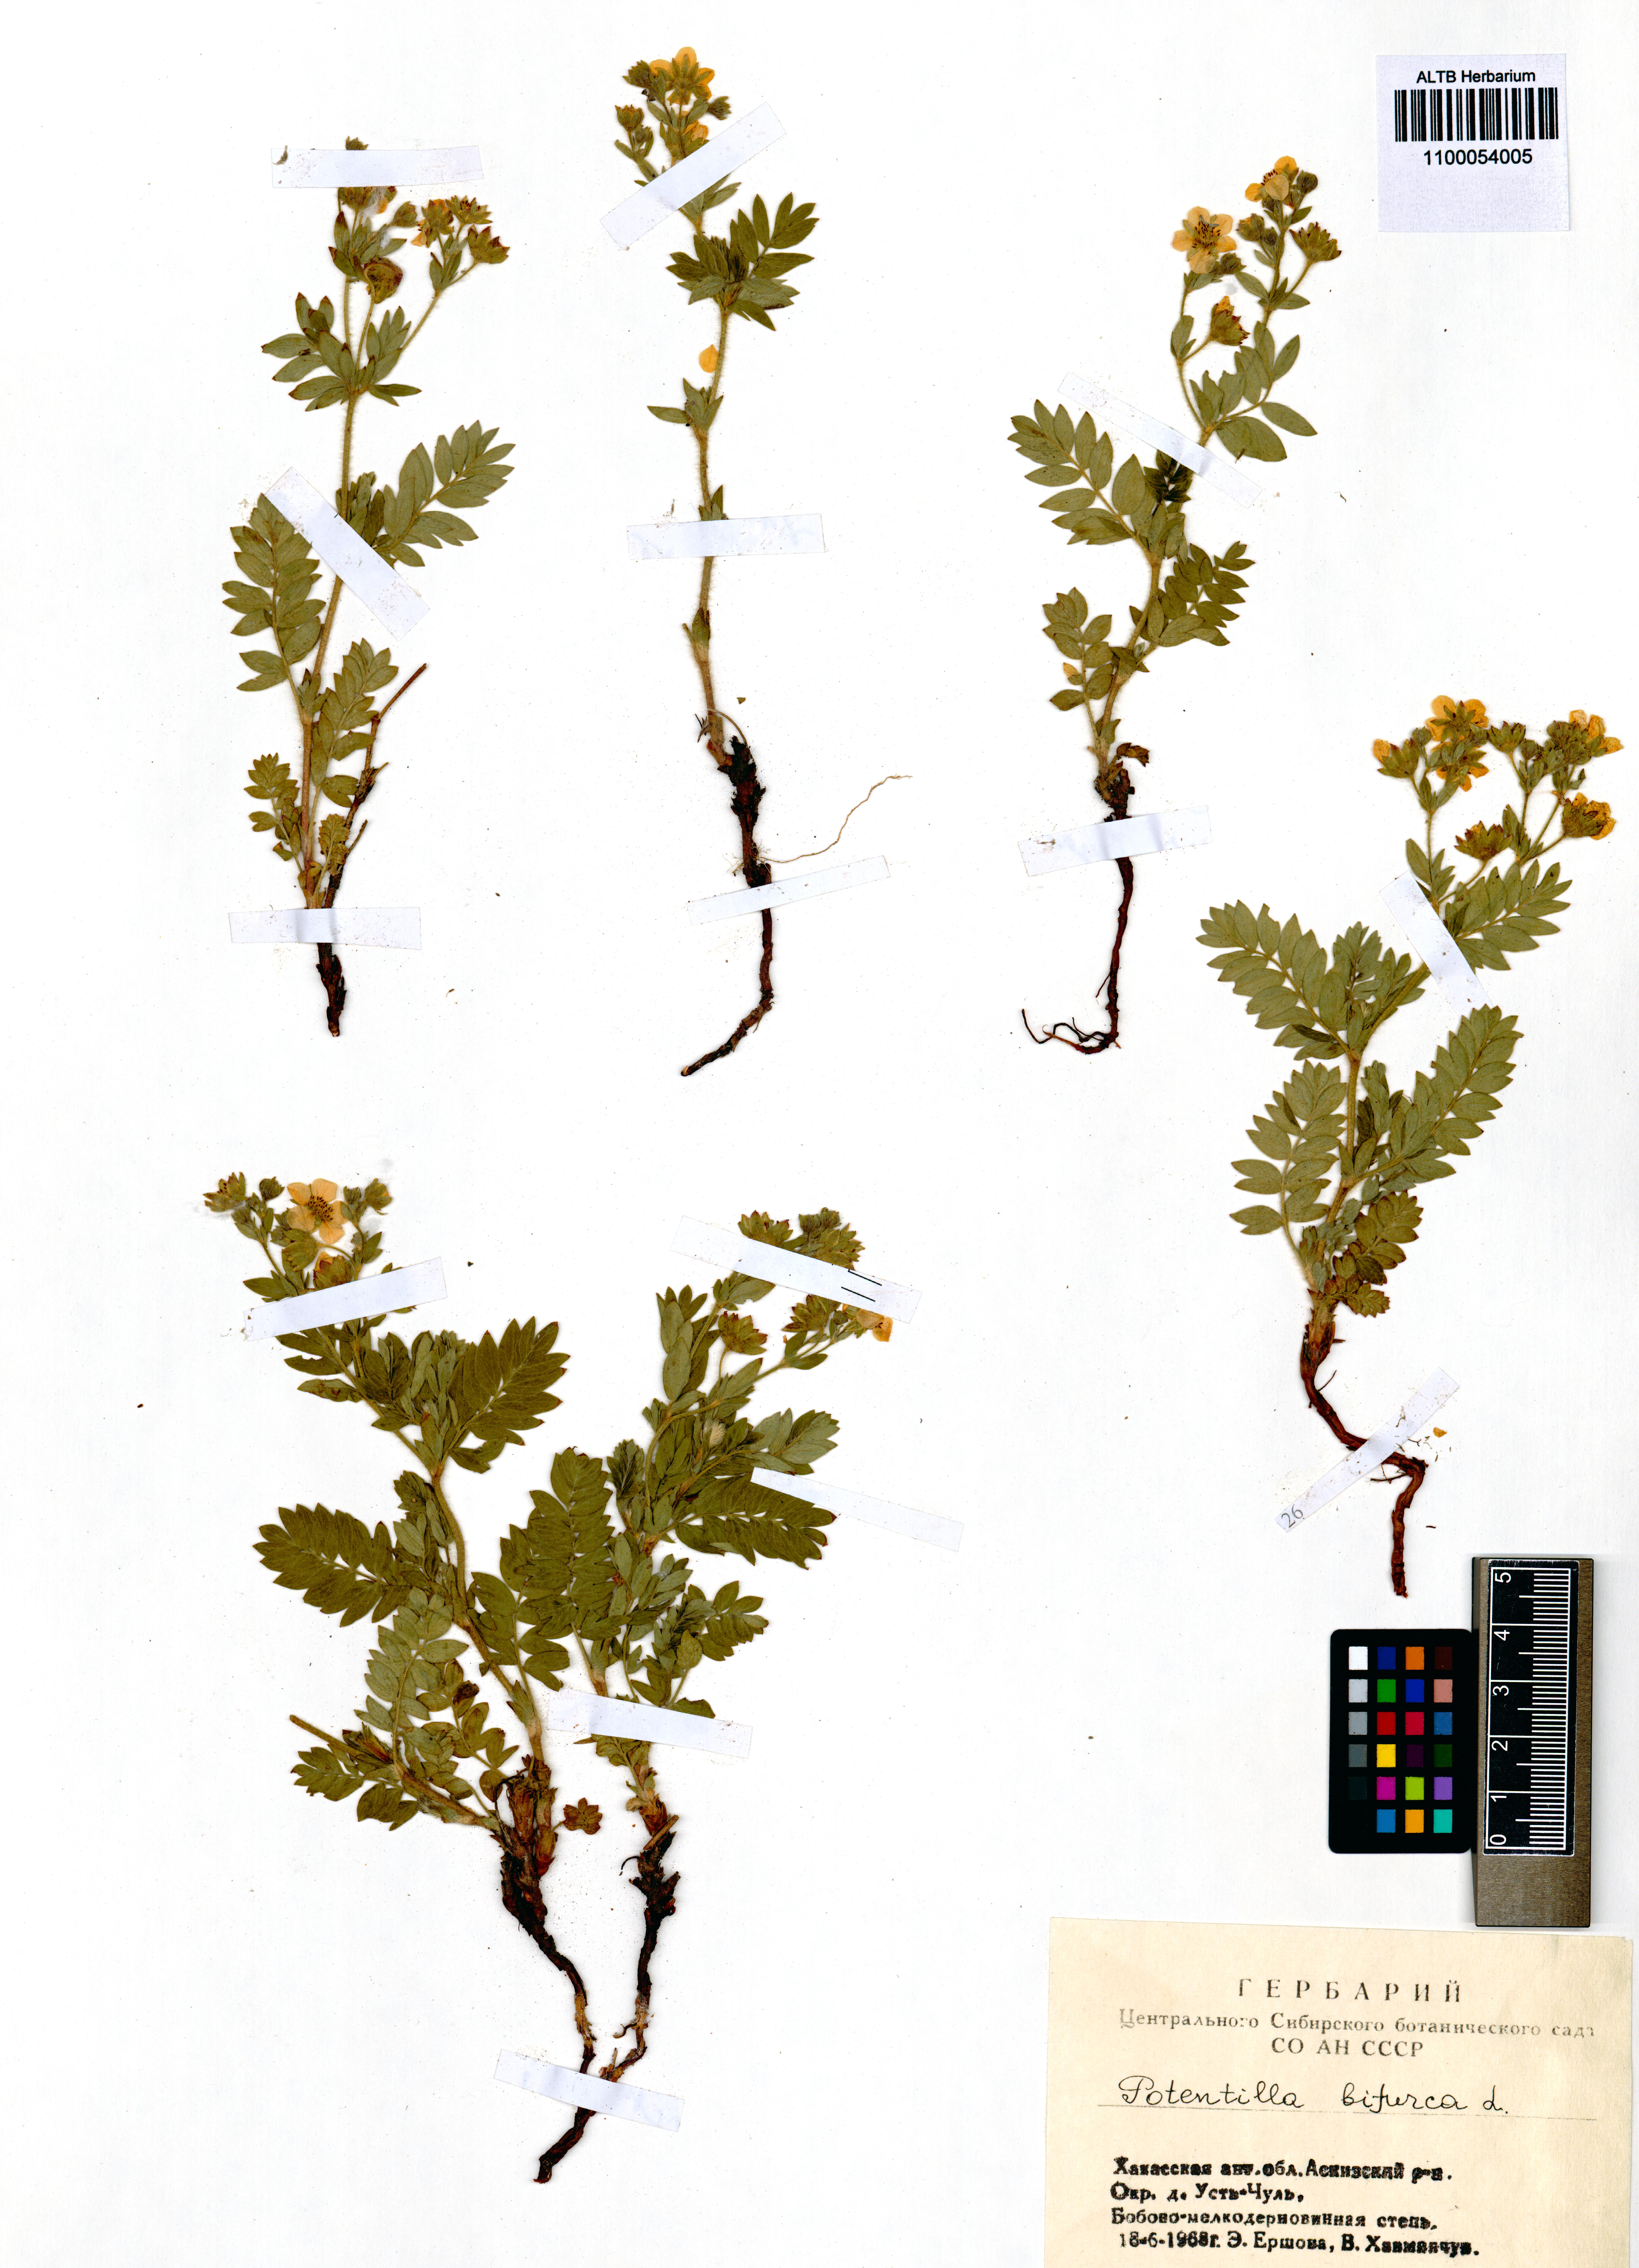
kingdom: Plantae
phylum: Tracheophyta
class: Magnoliopsida
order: Rosales
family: Rosaceae
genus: Sibbaldianthe
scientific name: Sibbaldianthe bifurca
